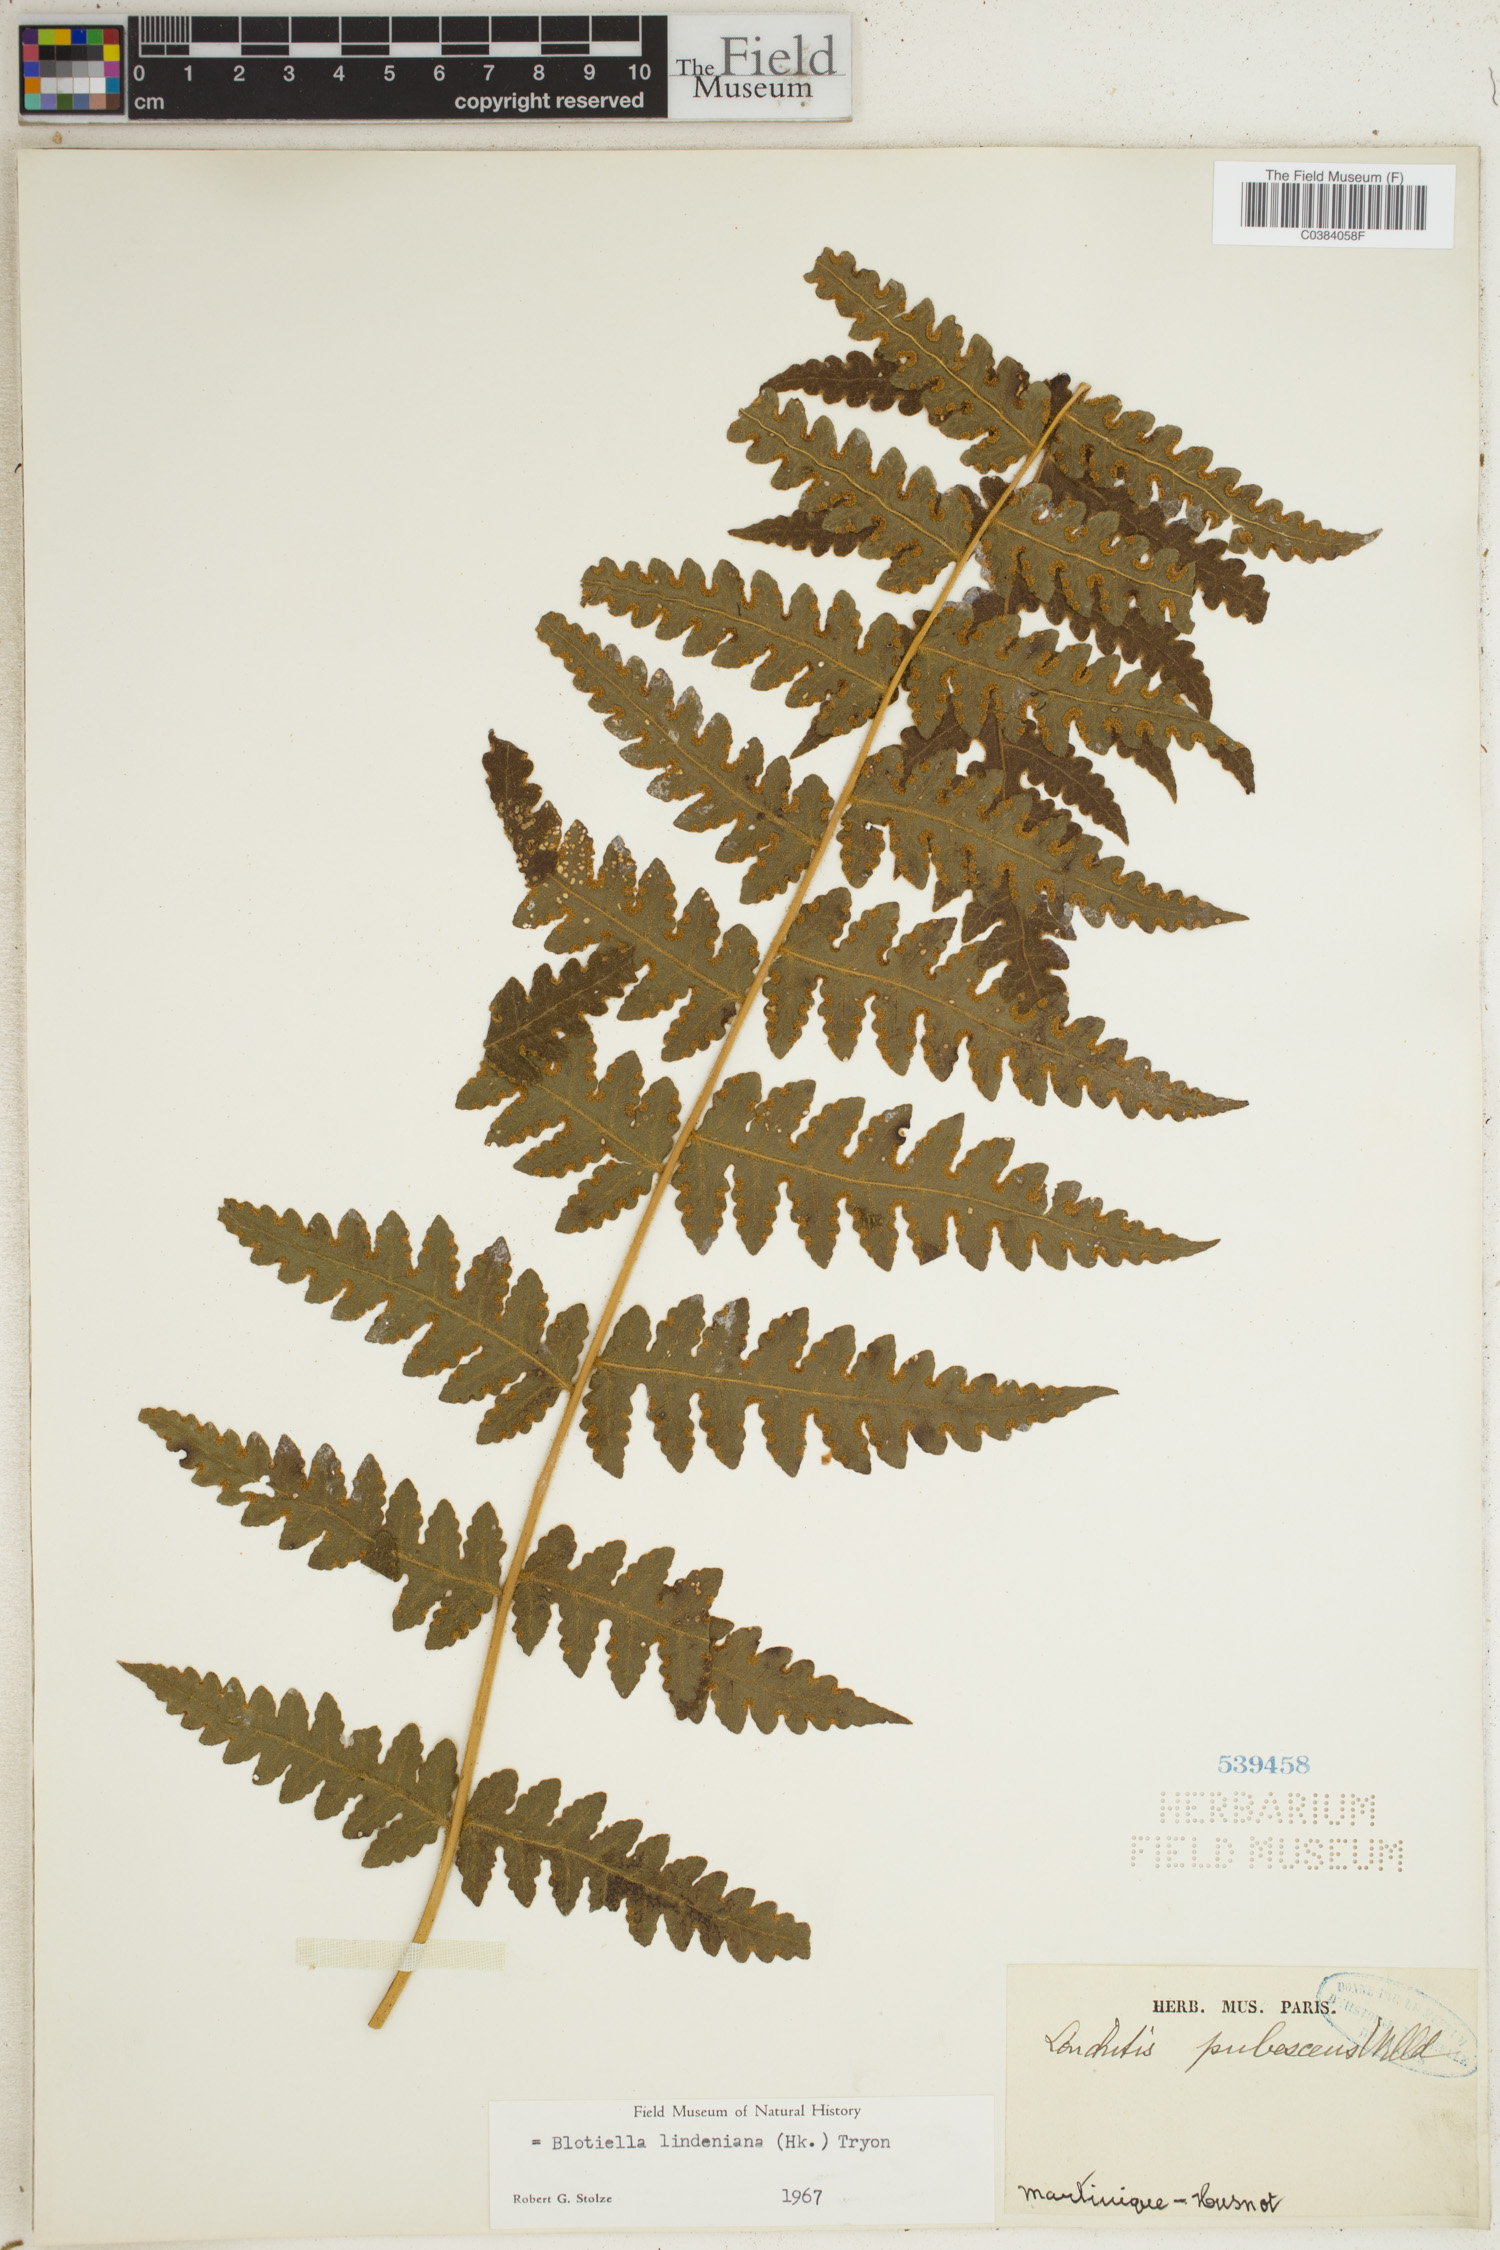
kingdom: Plantae
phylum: Tracheophyta
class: Polypodiopsida
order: Polypodiales
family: Dennstaedtiaceae
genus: Blotiella
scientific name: Blotiella aurita
